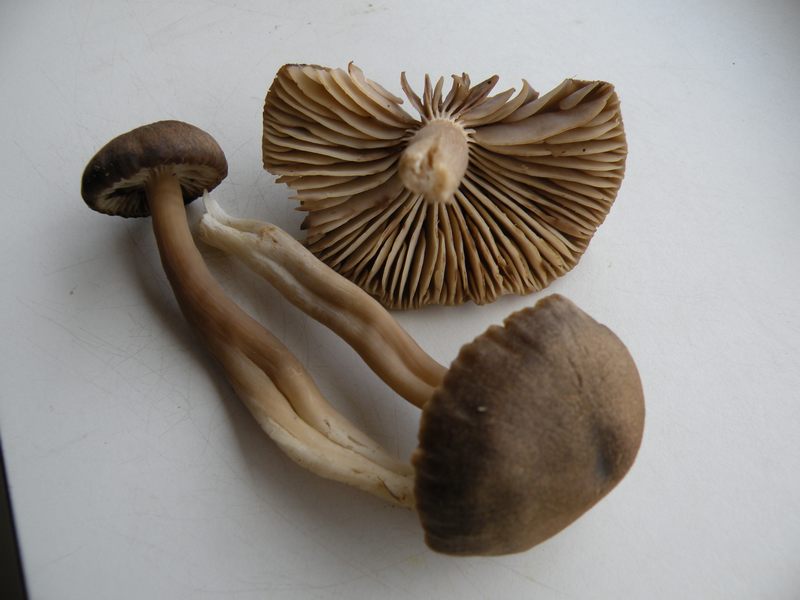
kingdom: Fungi
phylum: Basidiomycota
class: Agaricomycetes
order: Agaricales
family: Hygrophoraceae
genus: Neohygrocybe
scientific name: Neohygrocybe nitrata
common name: stinkende vokshat
